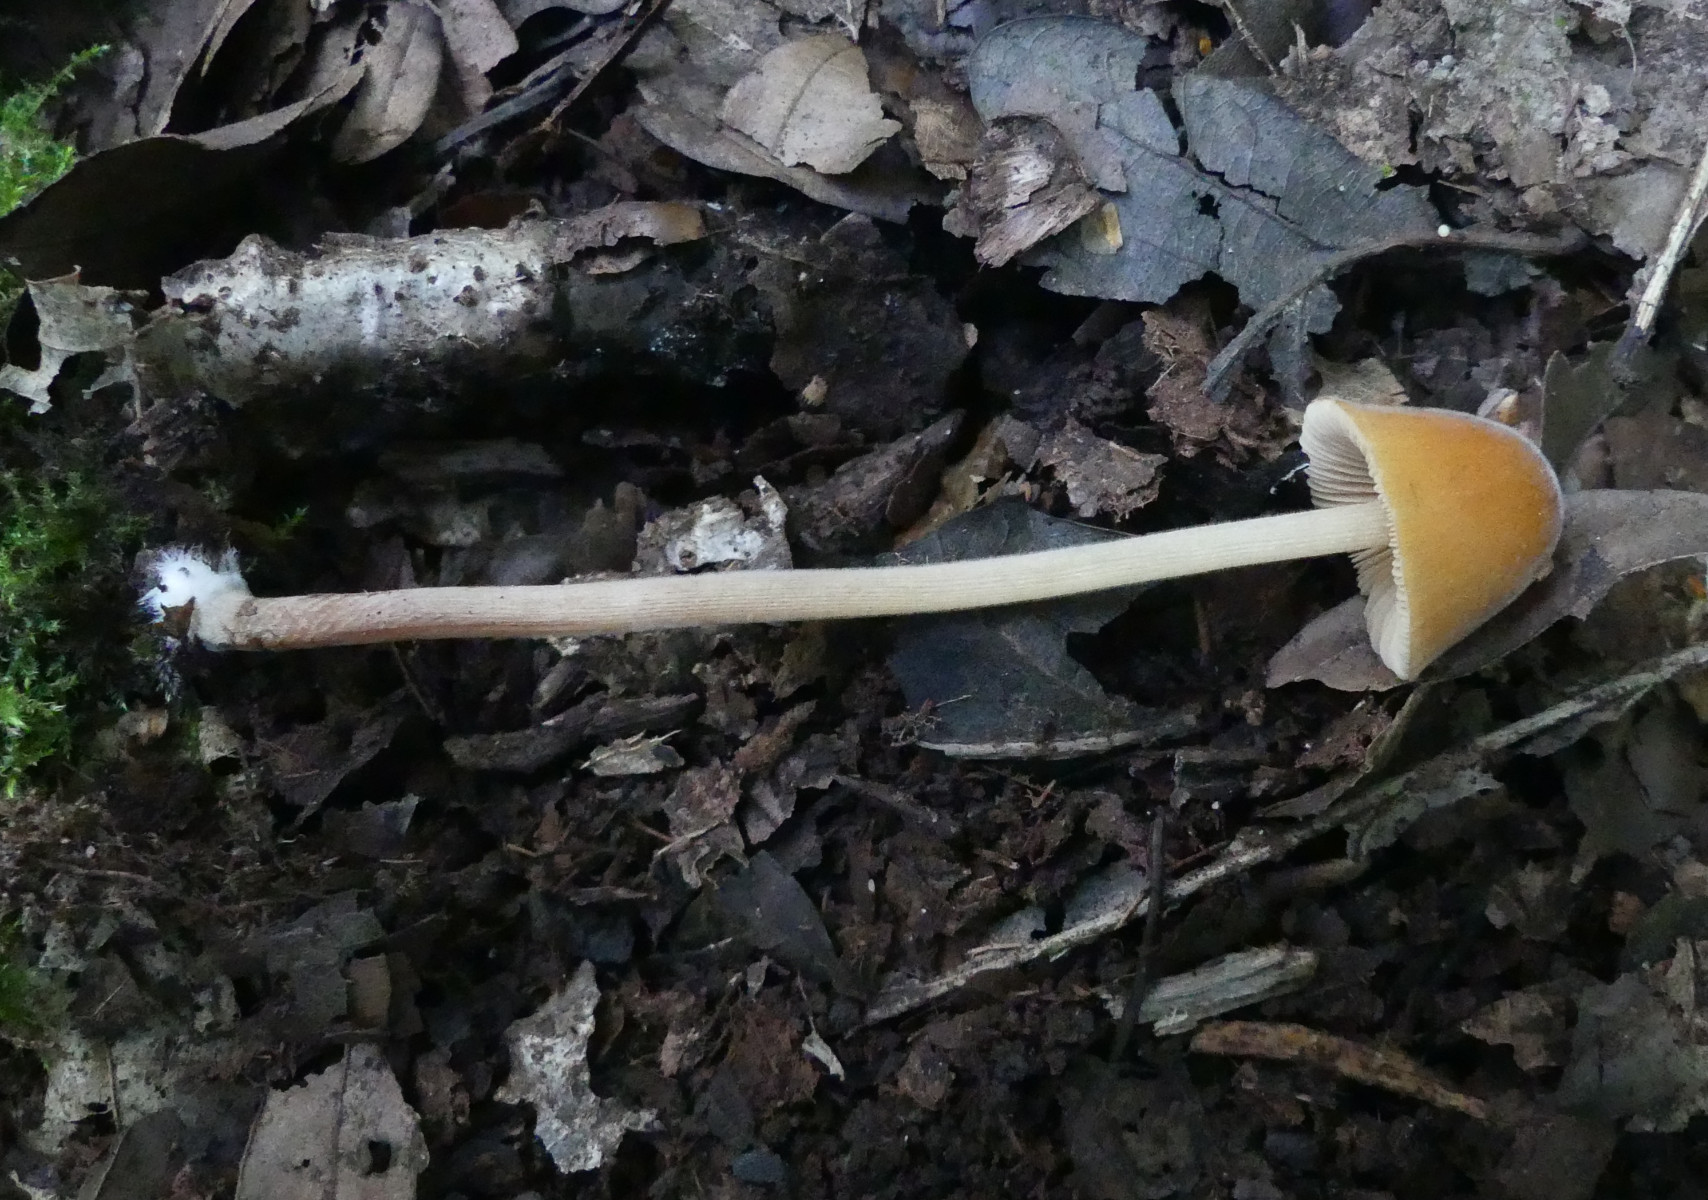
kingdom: Fungi
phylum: Basidiomycota
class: Agaricomycetes
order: Agaricales
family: Bolbitiaceae
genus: Conocybe
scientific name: Conocybe subpubescens
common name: krat-keglehat
